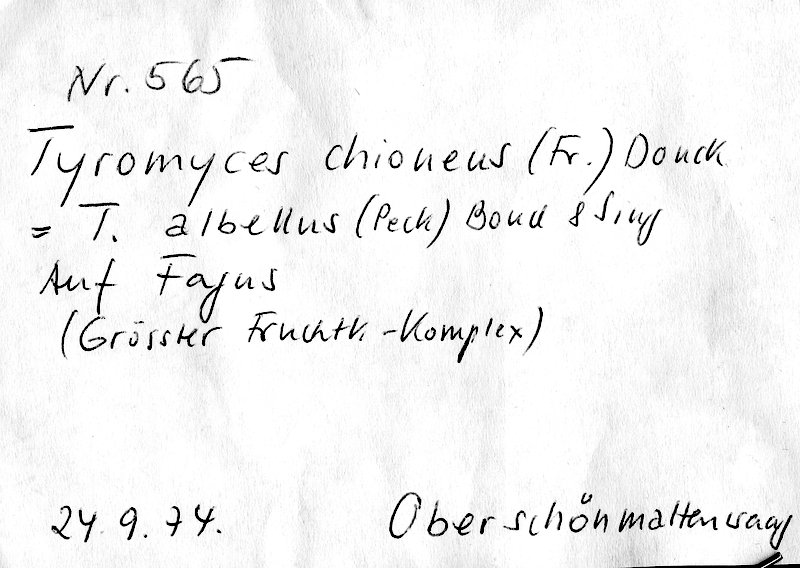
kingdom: Fungi
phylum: Basidiomycota
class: Agaricomycetes
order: Polyporales
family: Incrustoporiaceae
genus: Tyromyces
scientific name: Tyromyces chioneus
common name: White cheese polypore
